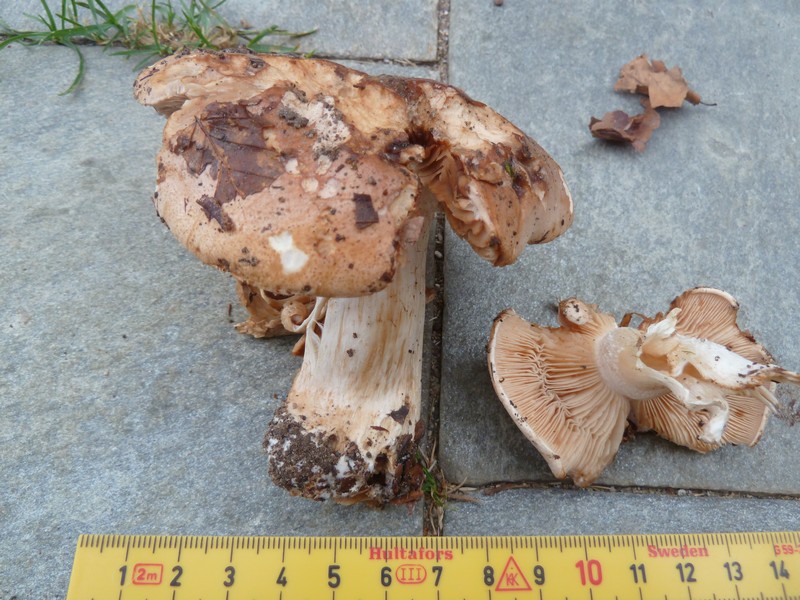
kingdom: Fungi
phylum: Basidiomycota
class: Agaricomycetes
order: Agaricales
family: Hymenogastraceae
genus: Hebeloma
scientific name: Hebeloma theobrominum
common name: rødbrun tåreblad
